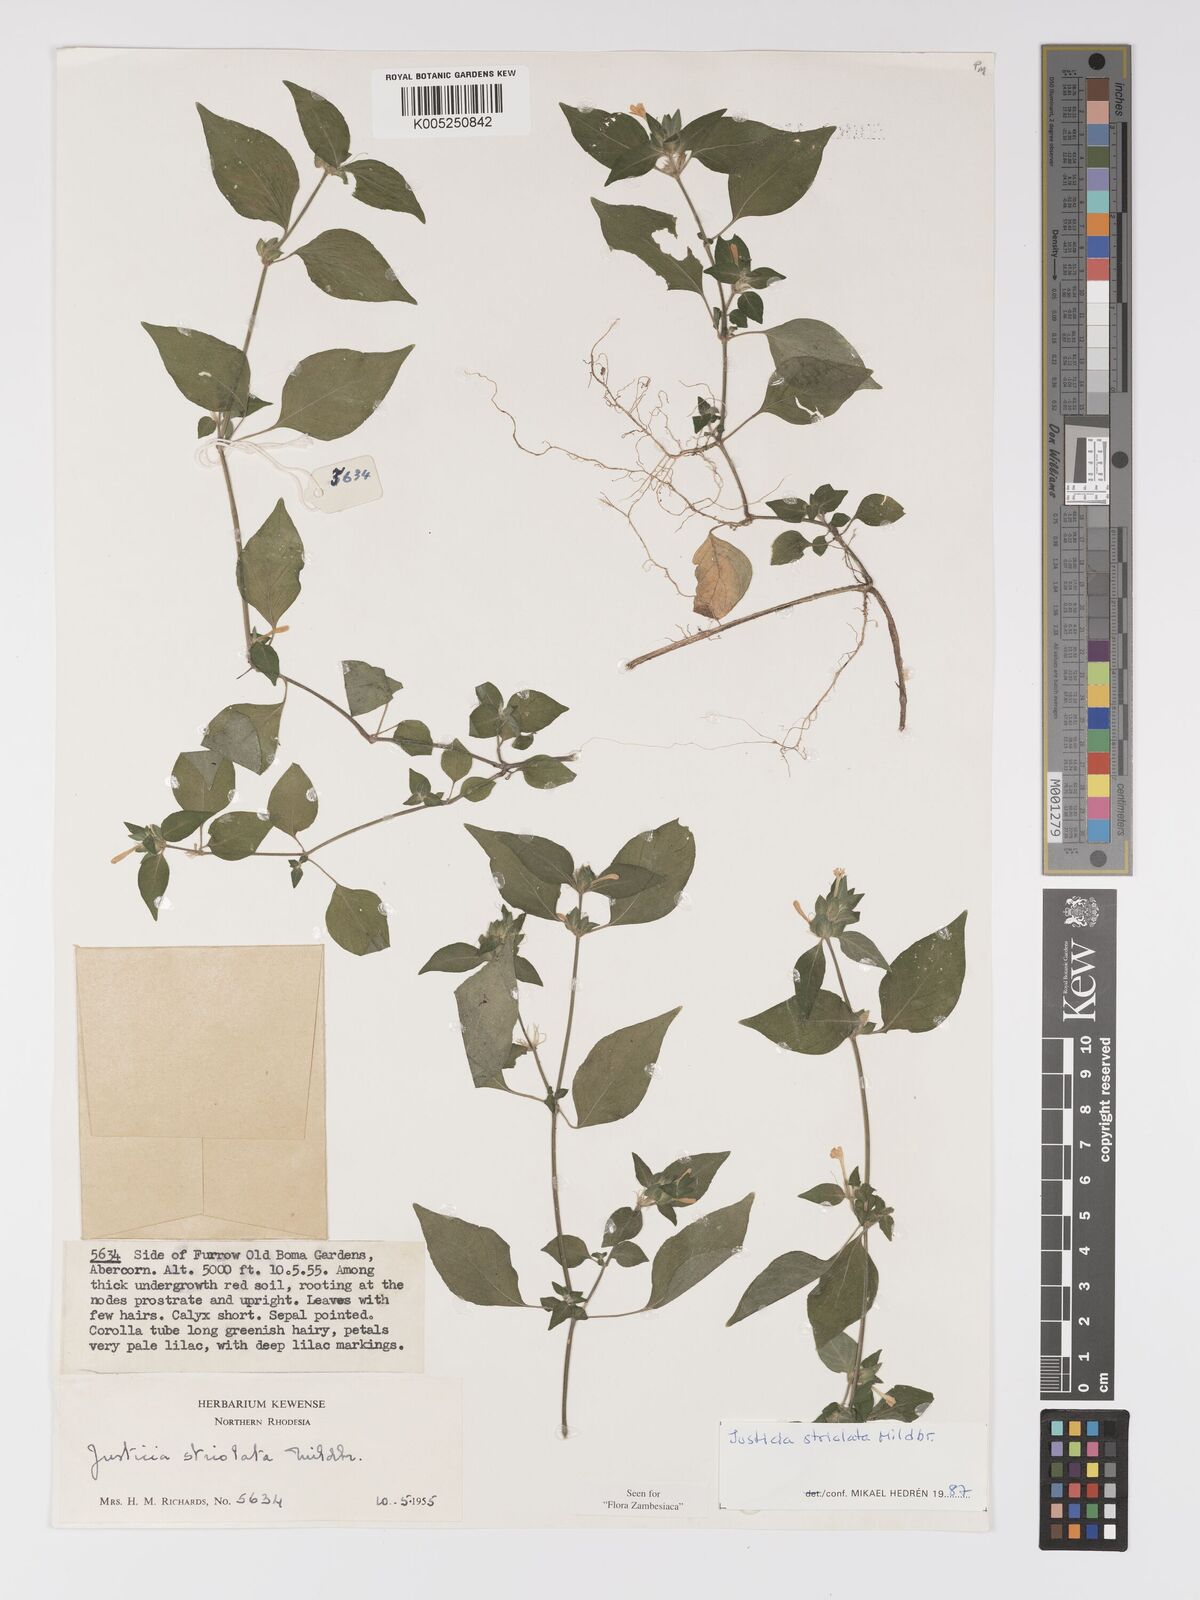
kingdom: Plantae
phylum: Tracheophyta
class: Magnoliopsida
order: Lamiales
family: Acanthaceae
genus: Justicia
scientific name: Justicia striolata
